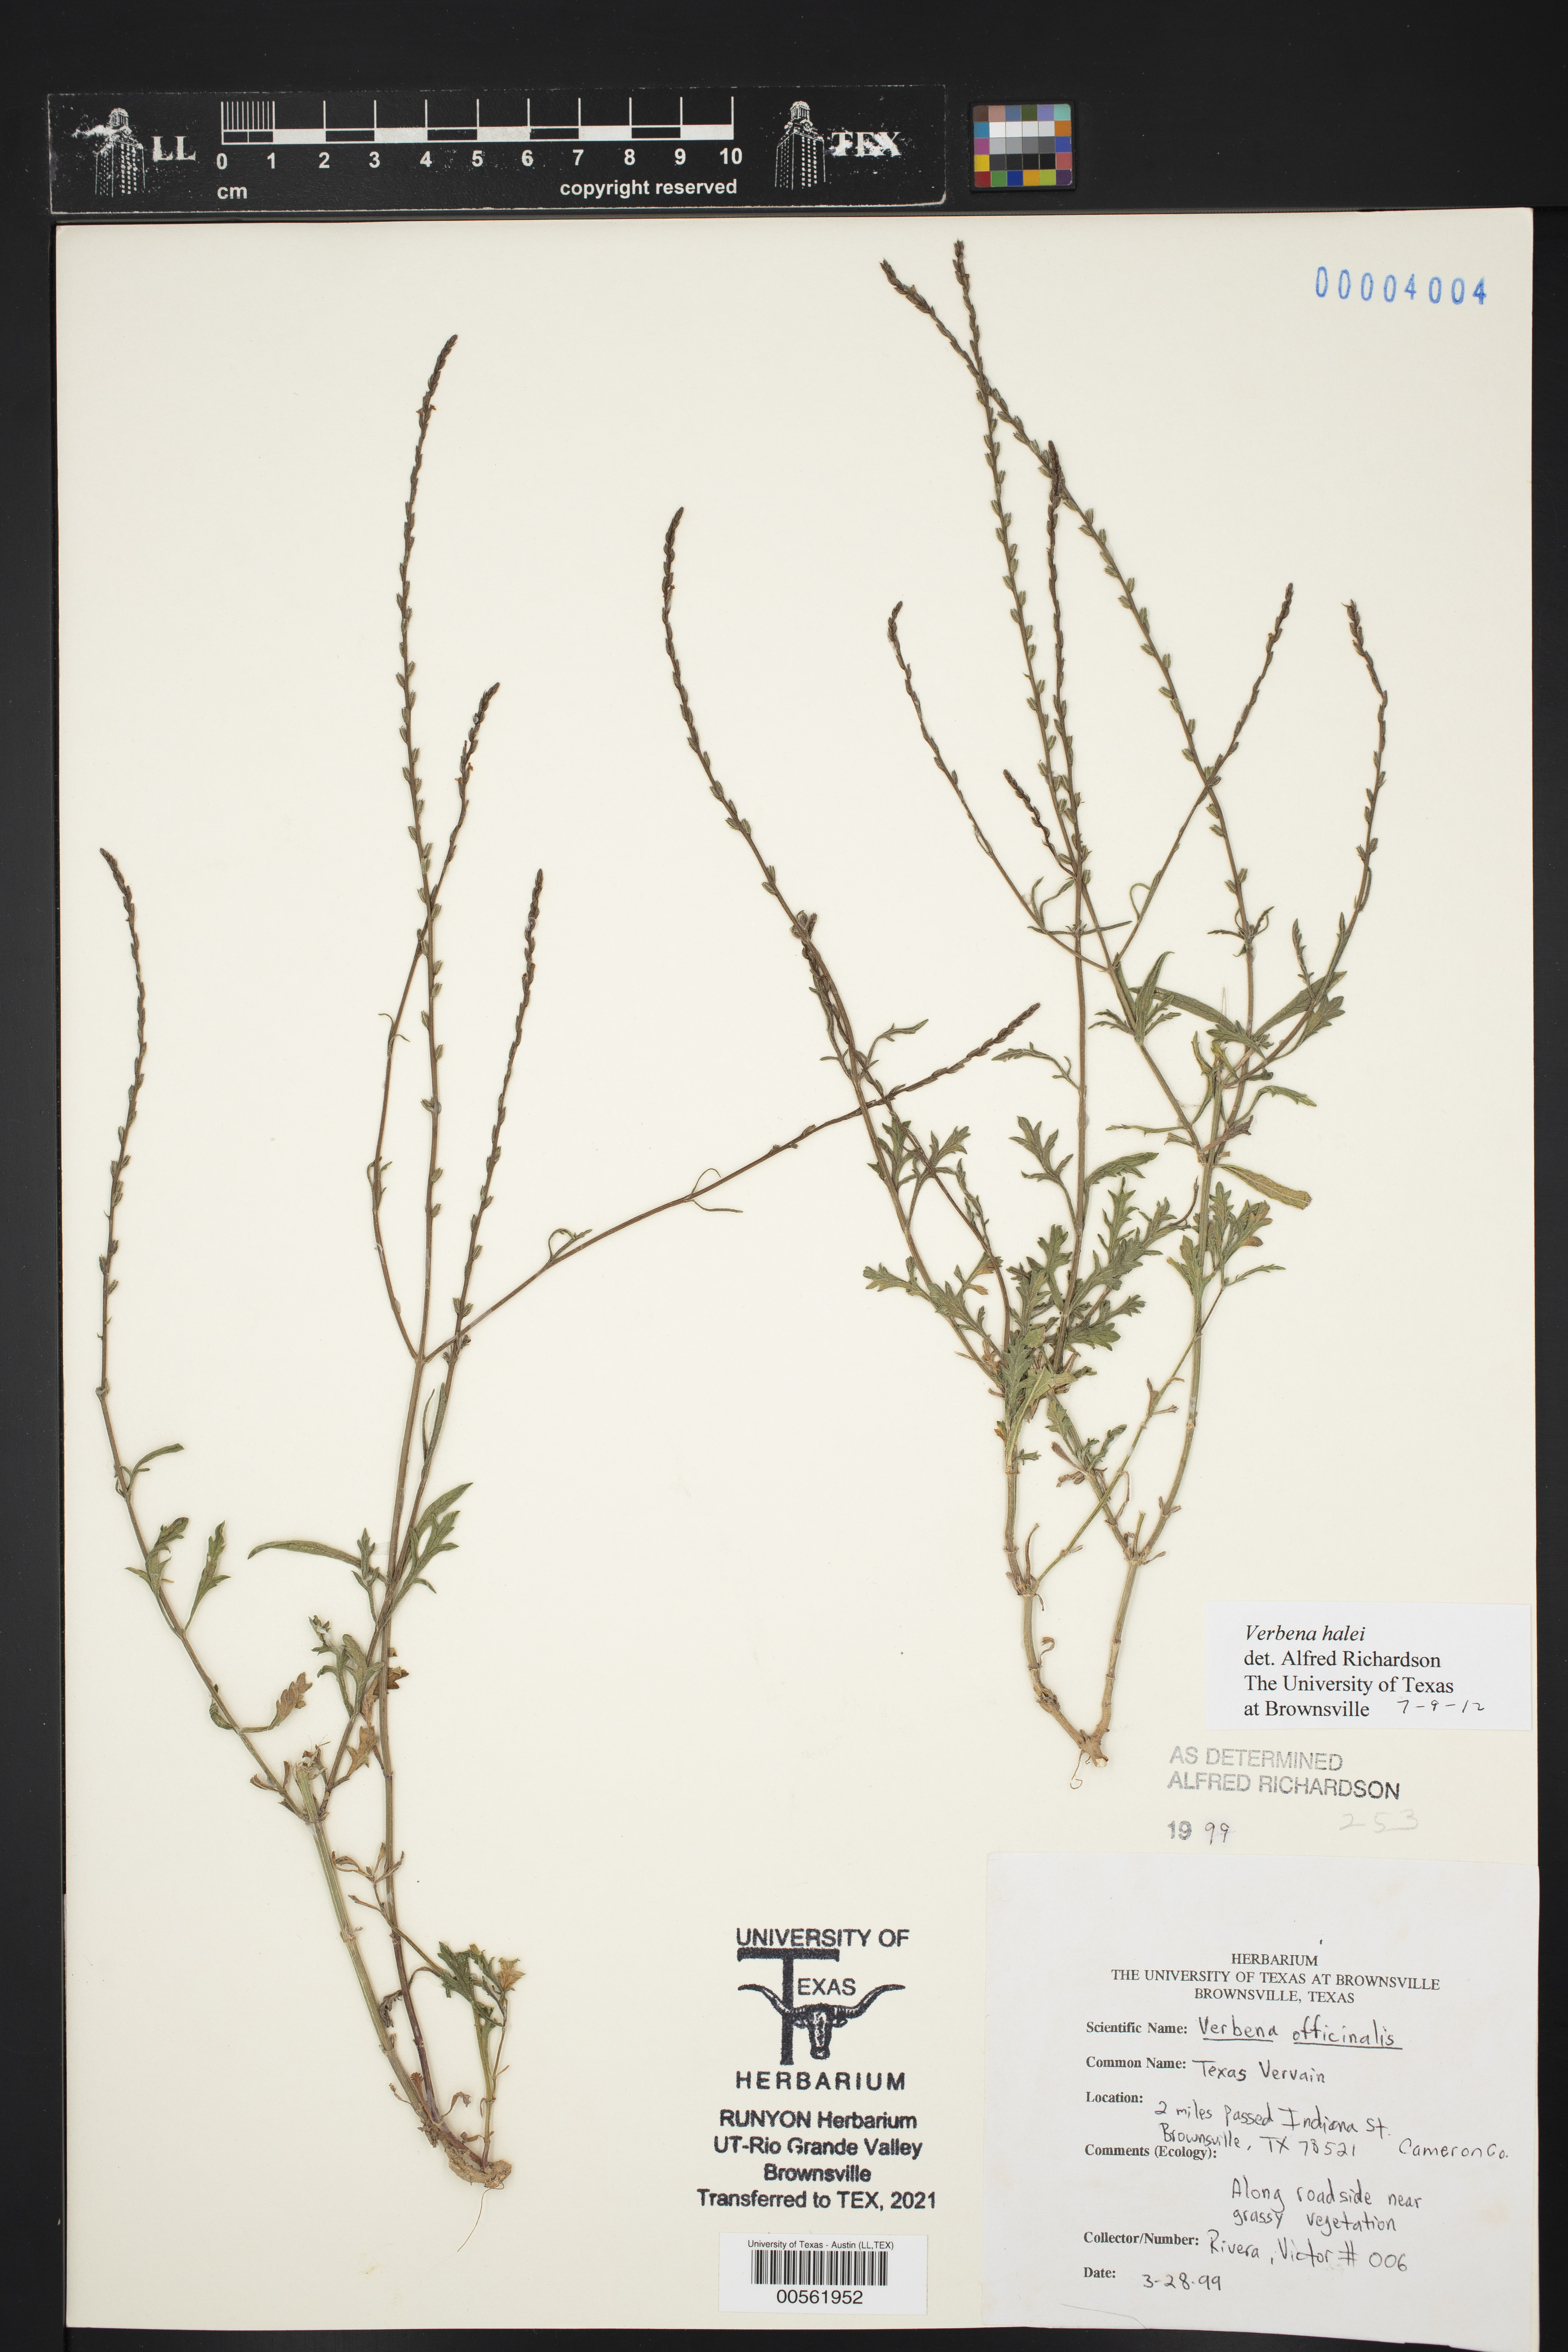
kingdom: Plantae
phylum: Tracheophyta
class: Magnoliopsida
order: Lamiales
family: Verbenaceae
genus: Verbena
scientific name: Verbena halei
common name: Texas vervain
